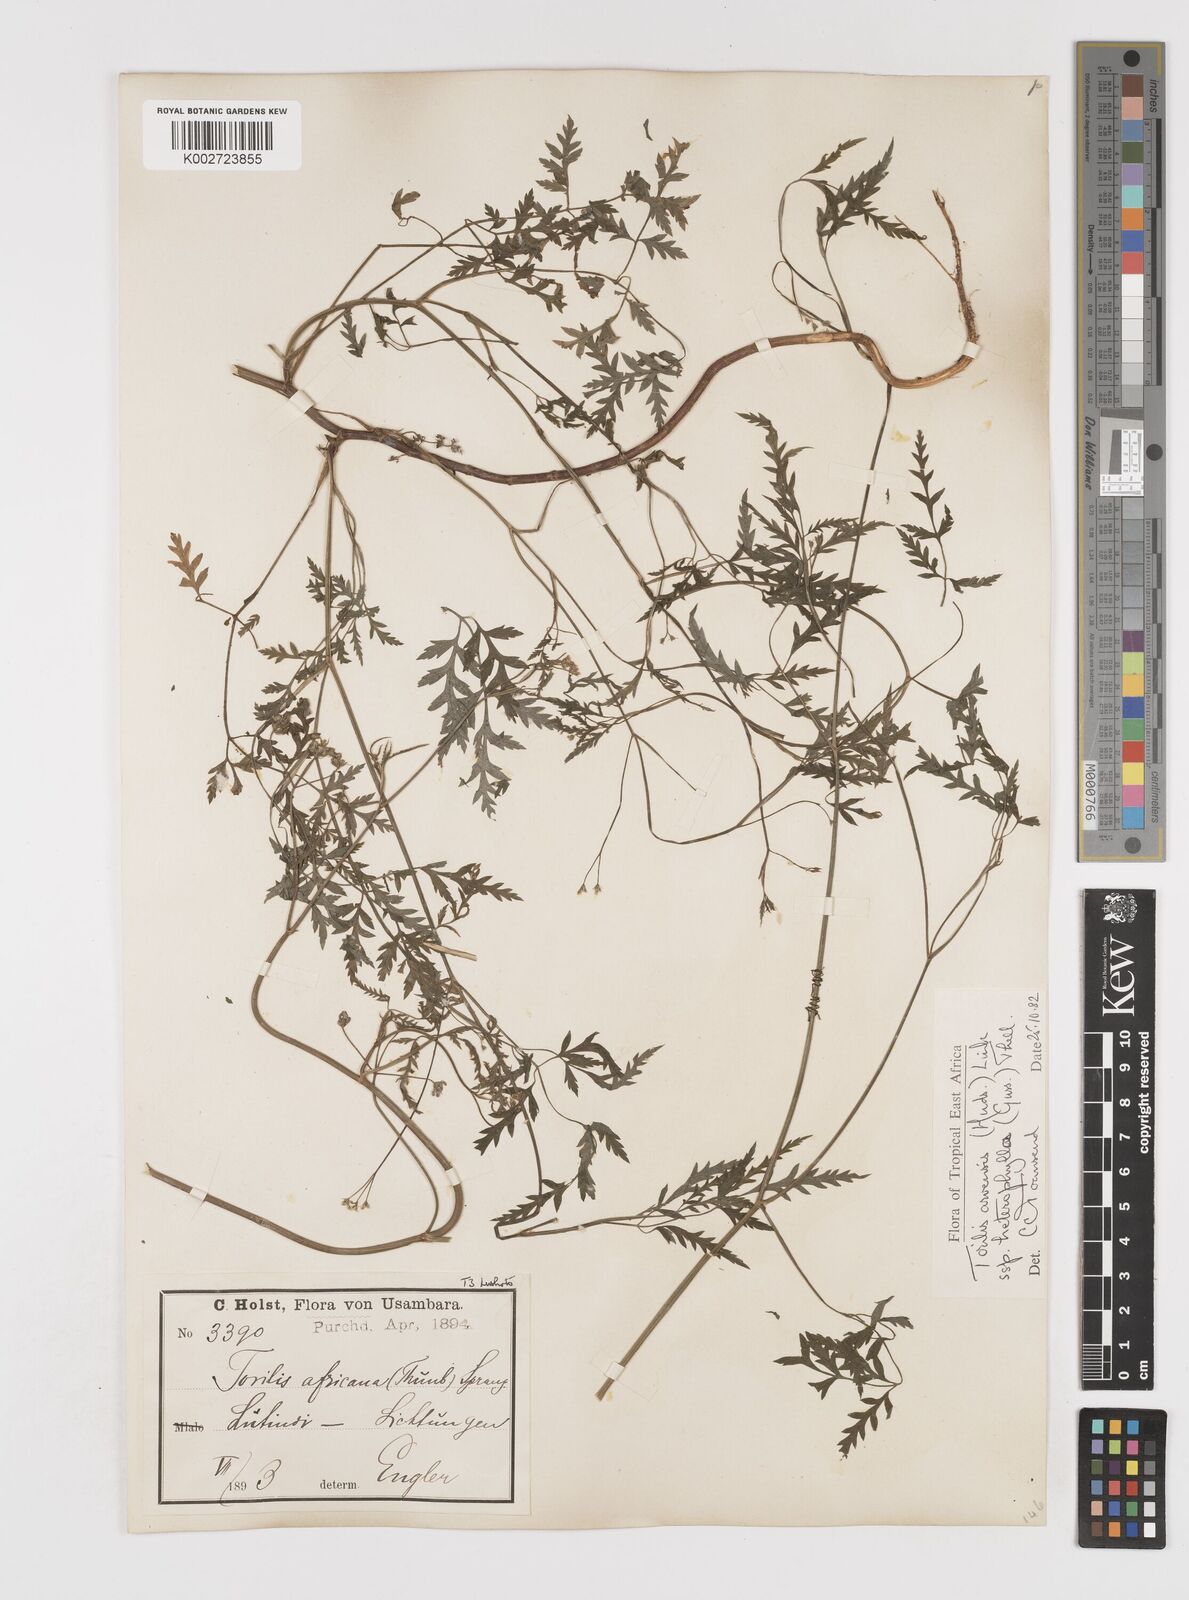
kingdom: Plantae
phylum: Tracheophyta
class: Magnoliopsida
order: Apiales
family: Apiaceae
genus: Torilis
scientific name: Torilis arvensis
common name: Spreading hedge-parsley
